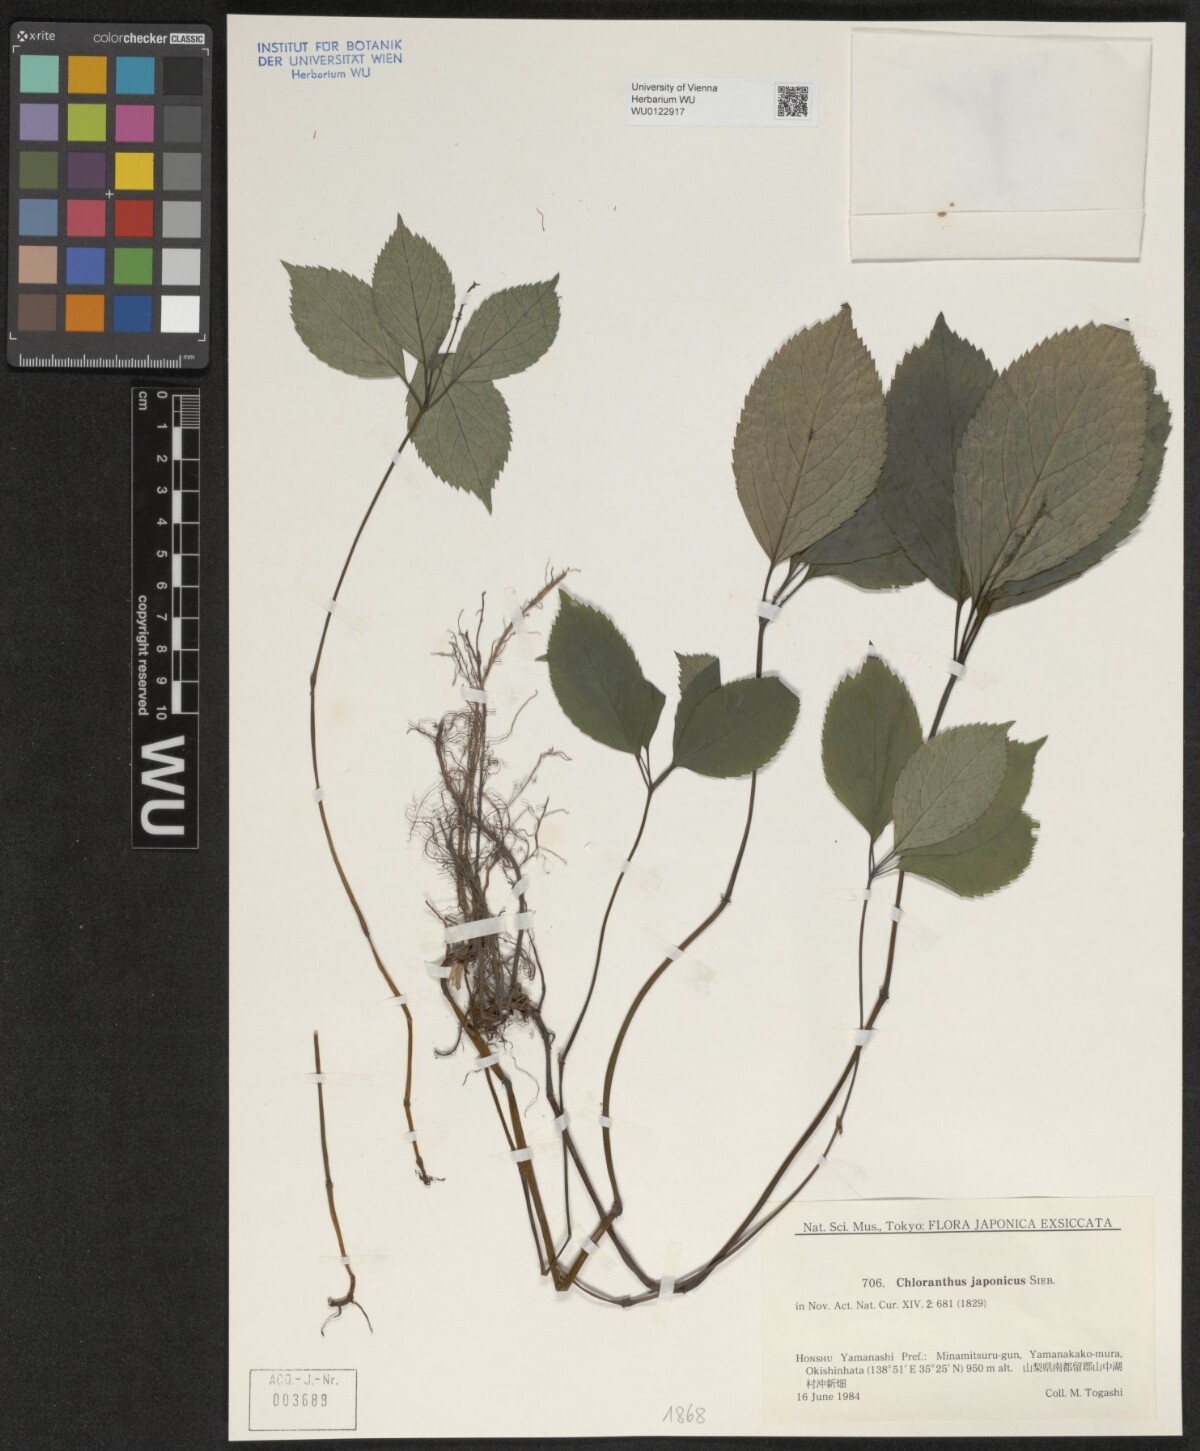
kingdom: Plantae
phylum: Tracheophyta
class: Magnoliopsida
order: Chloranthales
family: Chloranthaceae
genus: Chloranthus
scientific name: Chloranthus japonicus
